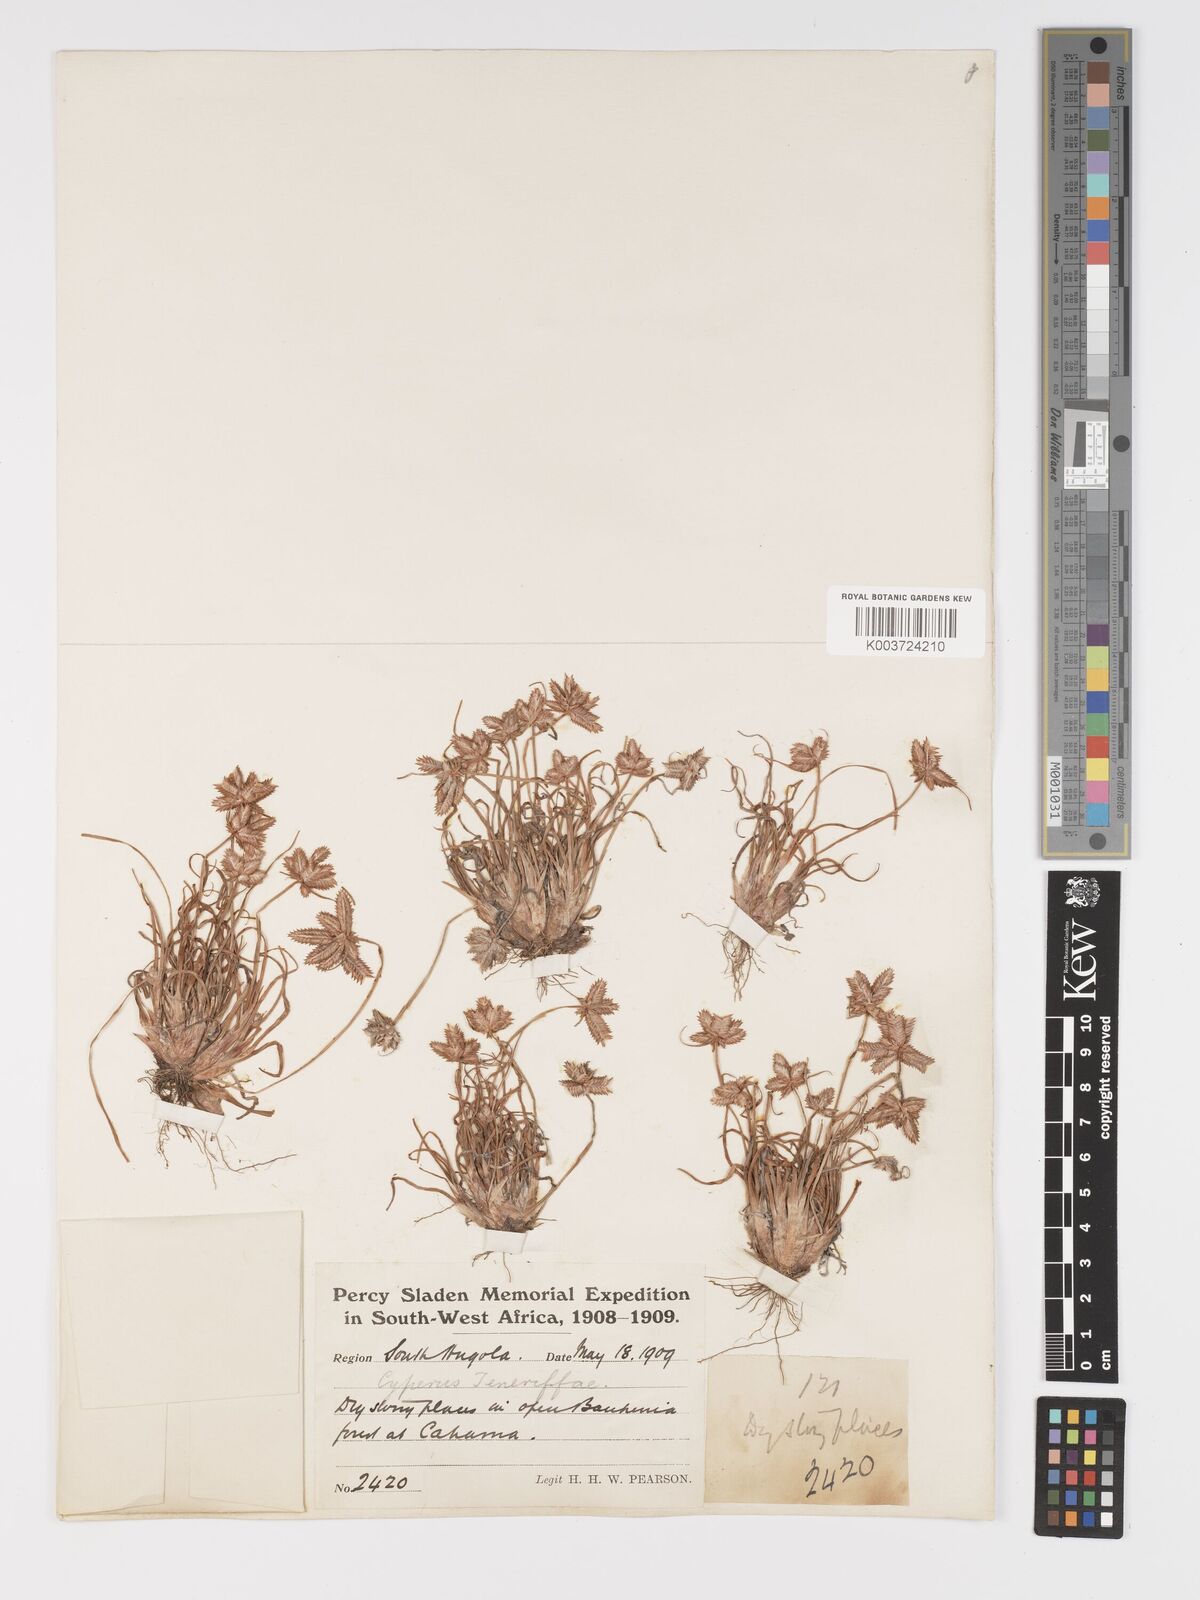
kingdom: Plantae
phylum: Tracheophyta
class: Liliopsida
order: Poales
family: Cyperaceae
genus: Cyperus
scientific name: Cyperus rubicundus
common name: Coco-grass
